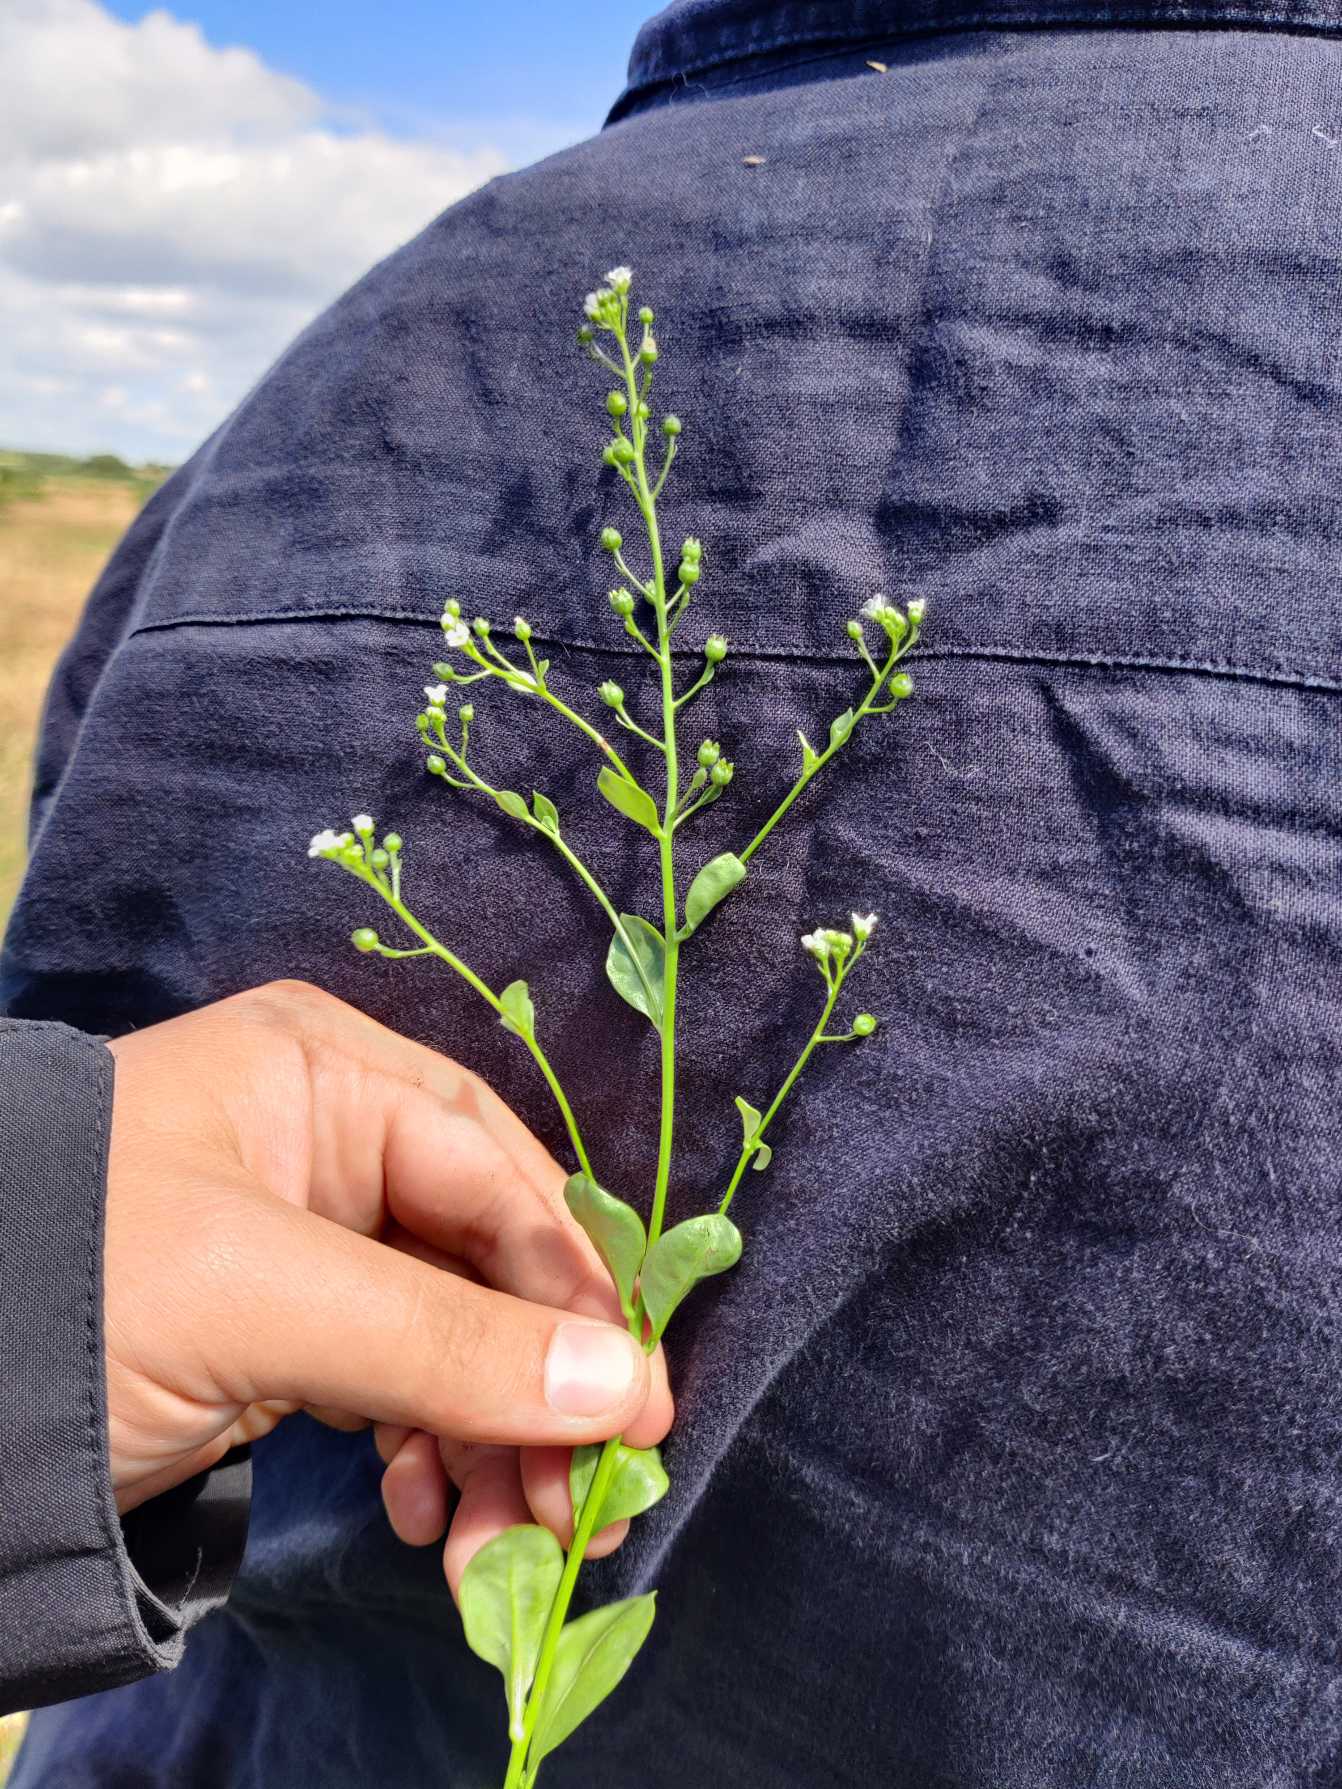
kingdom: Plantae
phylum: Tracheophyta
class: Magnoliopsida
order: Ericales
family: Primulaceae
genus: Samolus
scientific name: Samolus valerandi
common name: Samel
